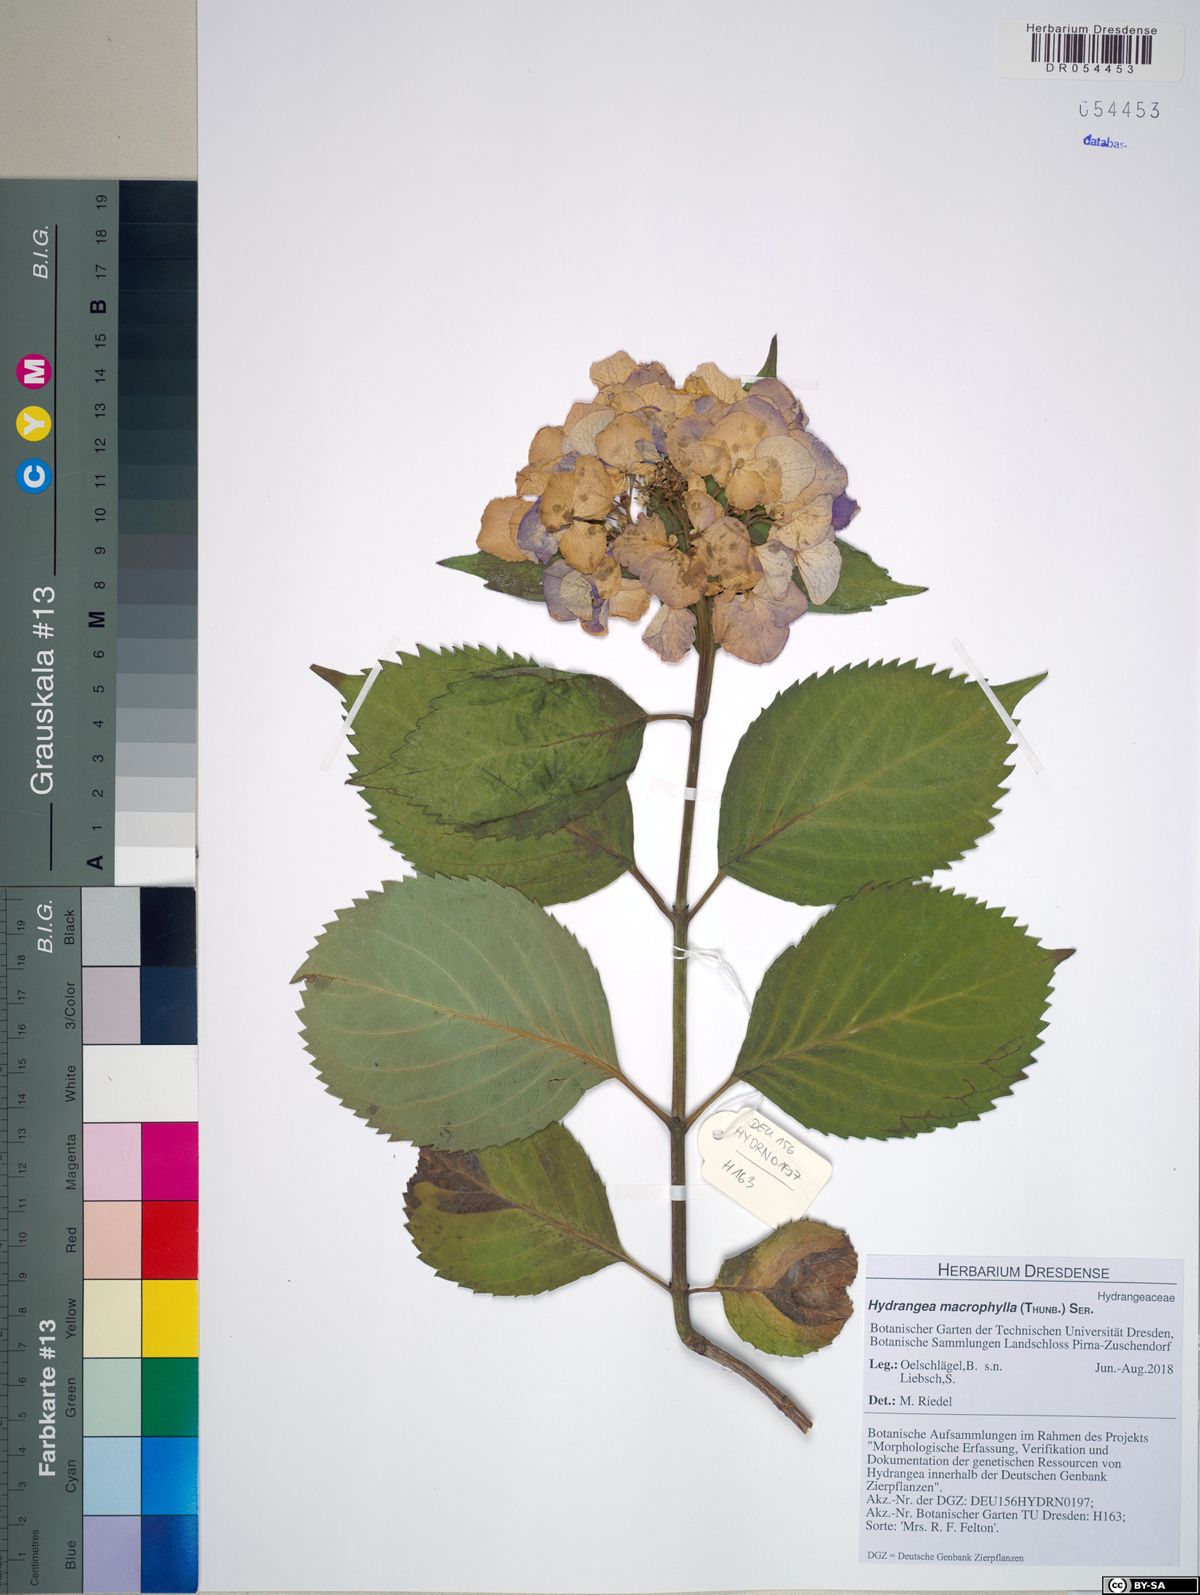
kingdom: Plantae
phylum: Tracheophyta
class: Magnoliopsida
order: Cornales
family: Hydrangeaceae
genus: Hydrangea
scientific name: Hydrangea macrophylla
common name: Hydrangea
